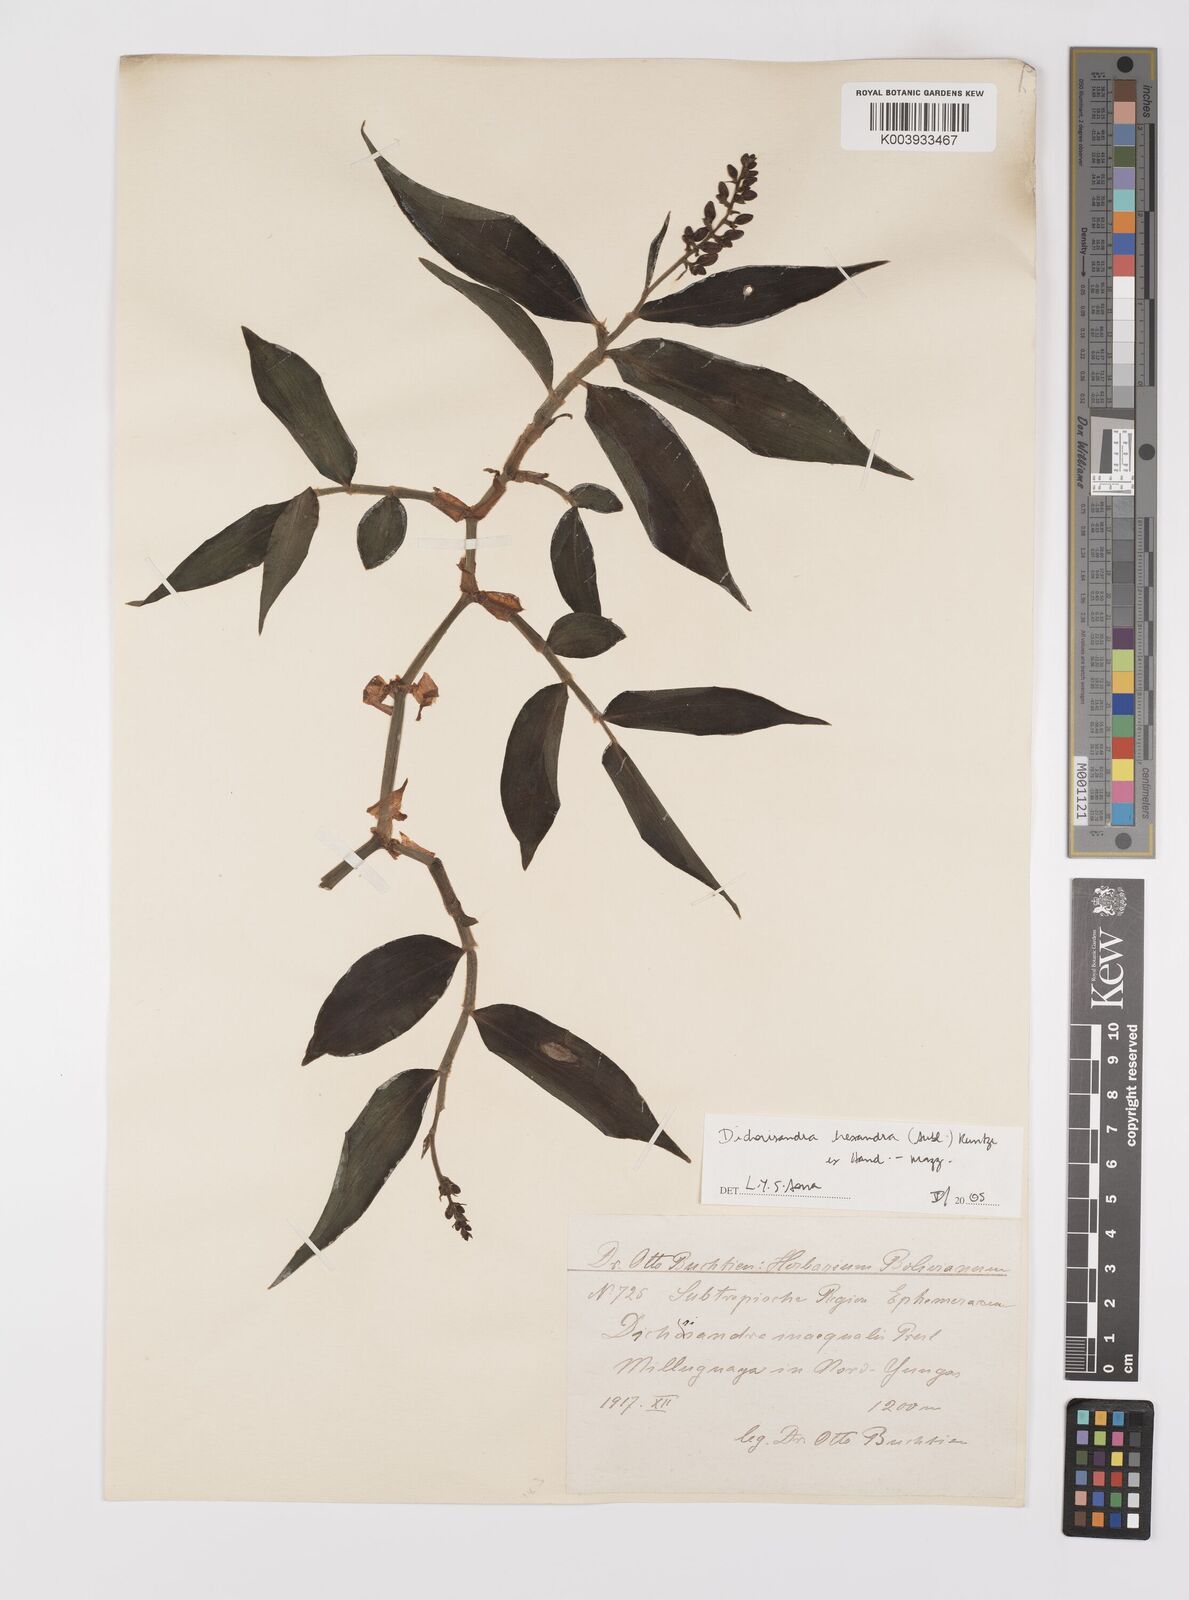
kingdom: Plantae
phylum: Tracheophyta
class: Liliopsida
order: Commelinales
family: Commelinaceae
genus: Dichorisandra
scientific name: Dichorisandra hexandra
